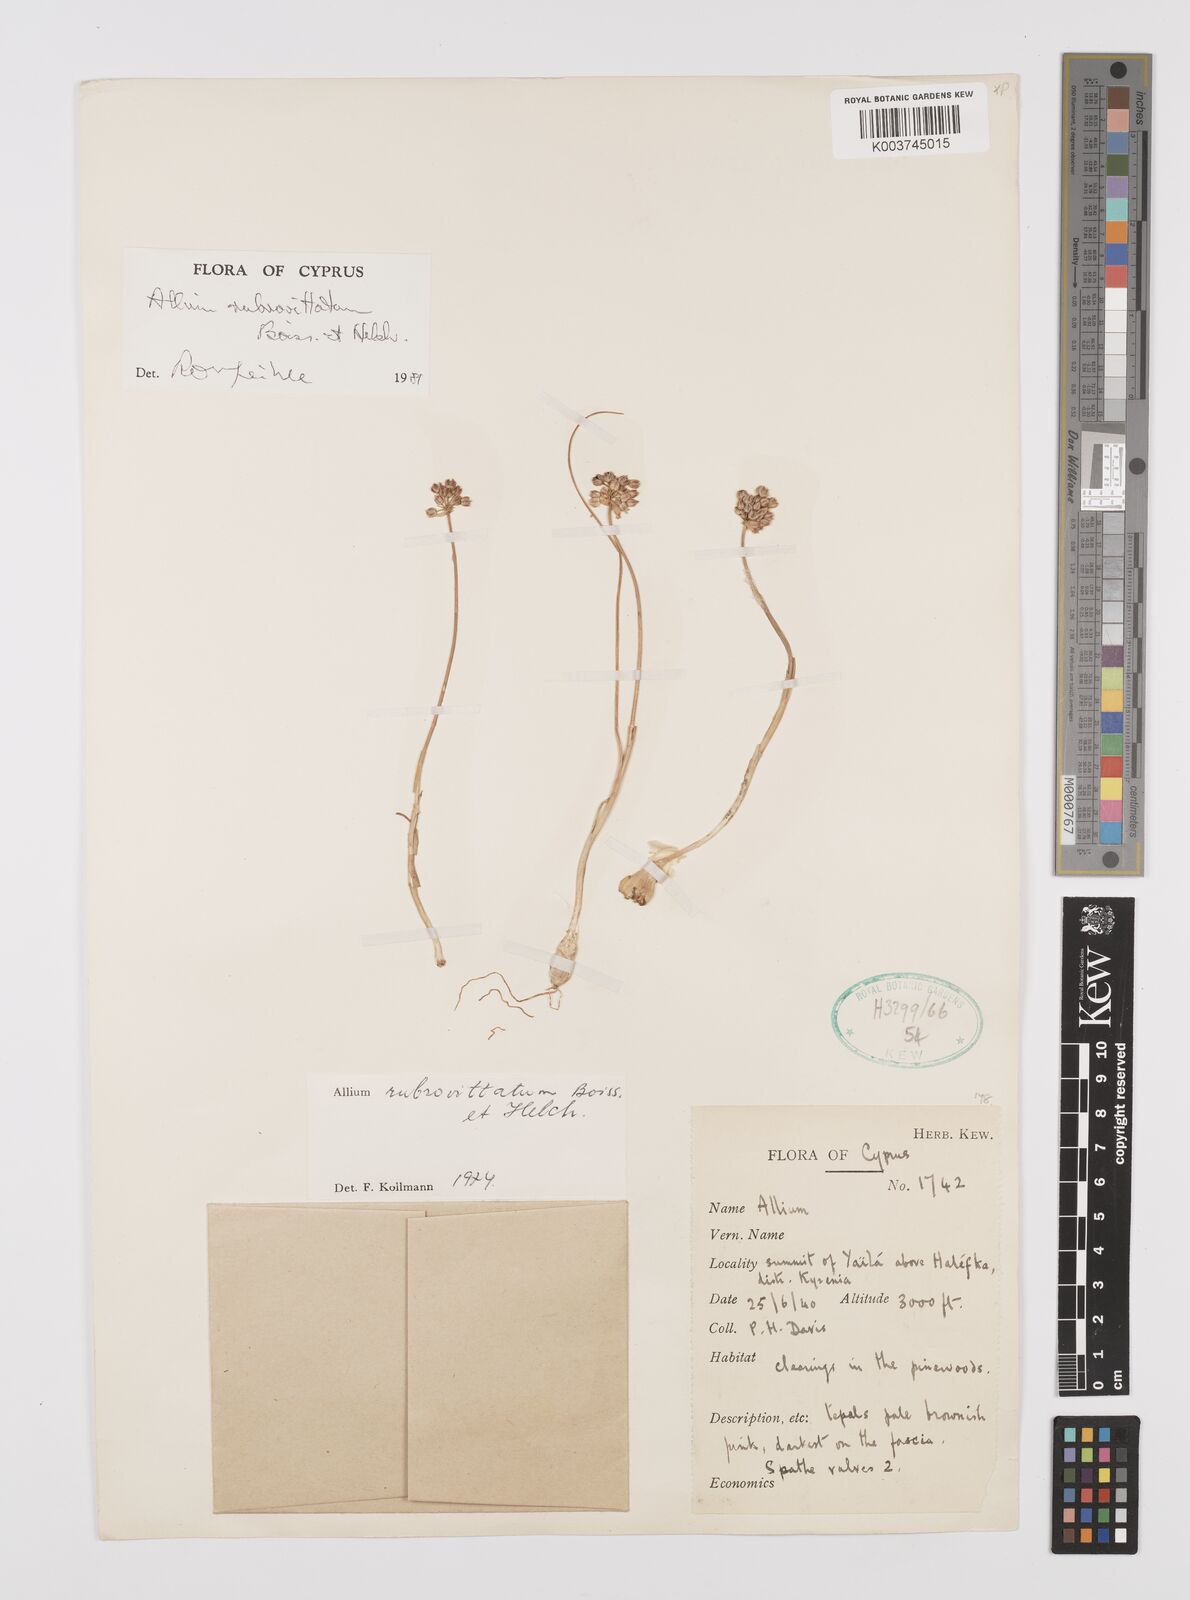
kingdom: Plantae
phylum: Tracheophyta
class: Liliopsida
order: Asparagales
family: Amaryllidaceae
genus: Allium
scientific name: Allium rubrovittatum
